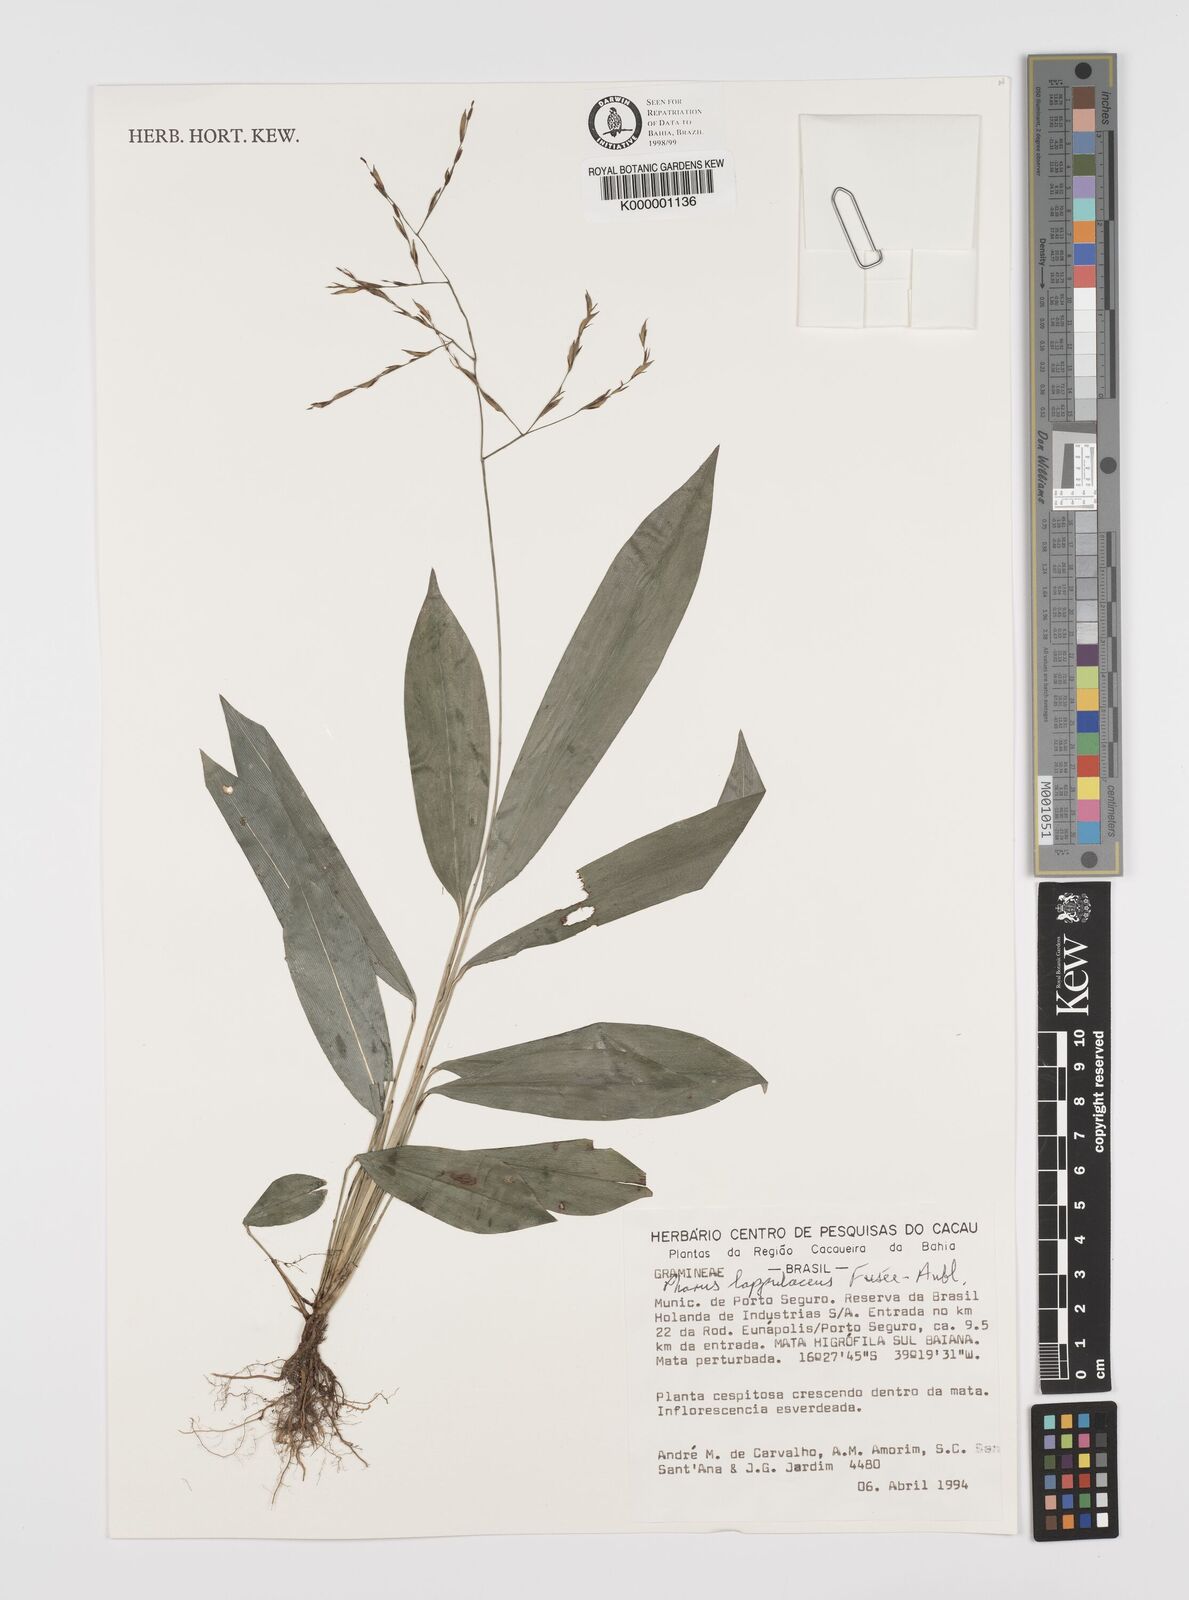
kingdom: Plantae
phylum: Tracheophyta
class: Liliopsida
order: Poales
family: Poaceae
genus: Pharus
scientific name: Pharus lappulaceus
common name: Creeping leafstalk grass
